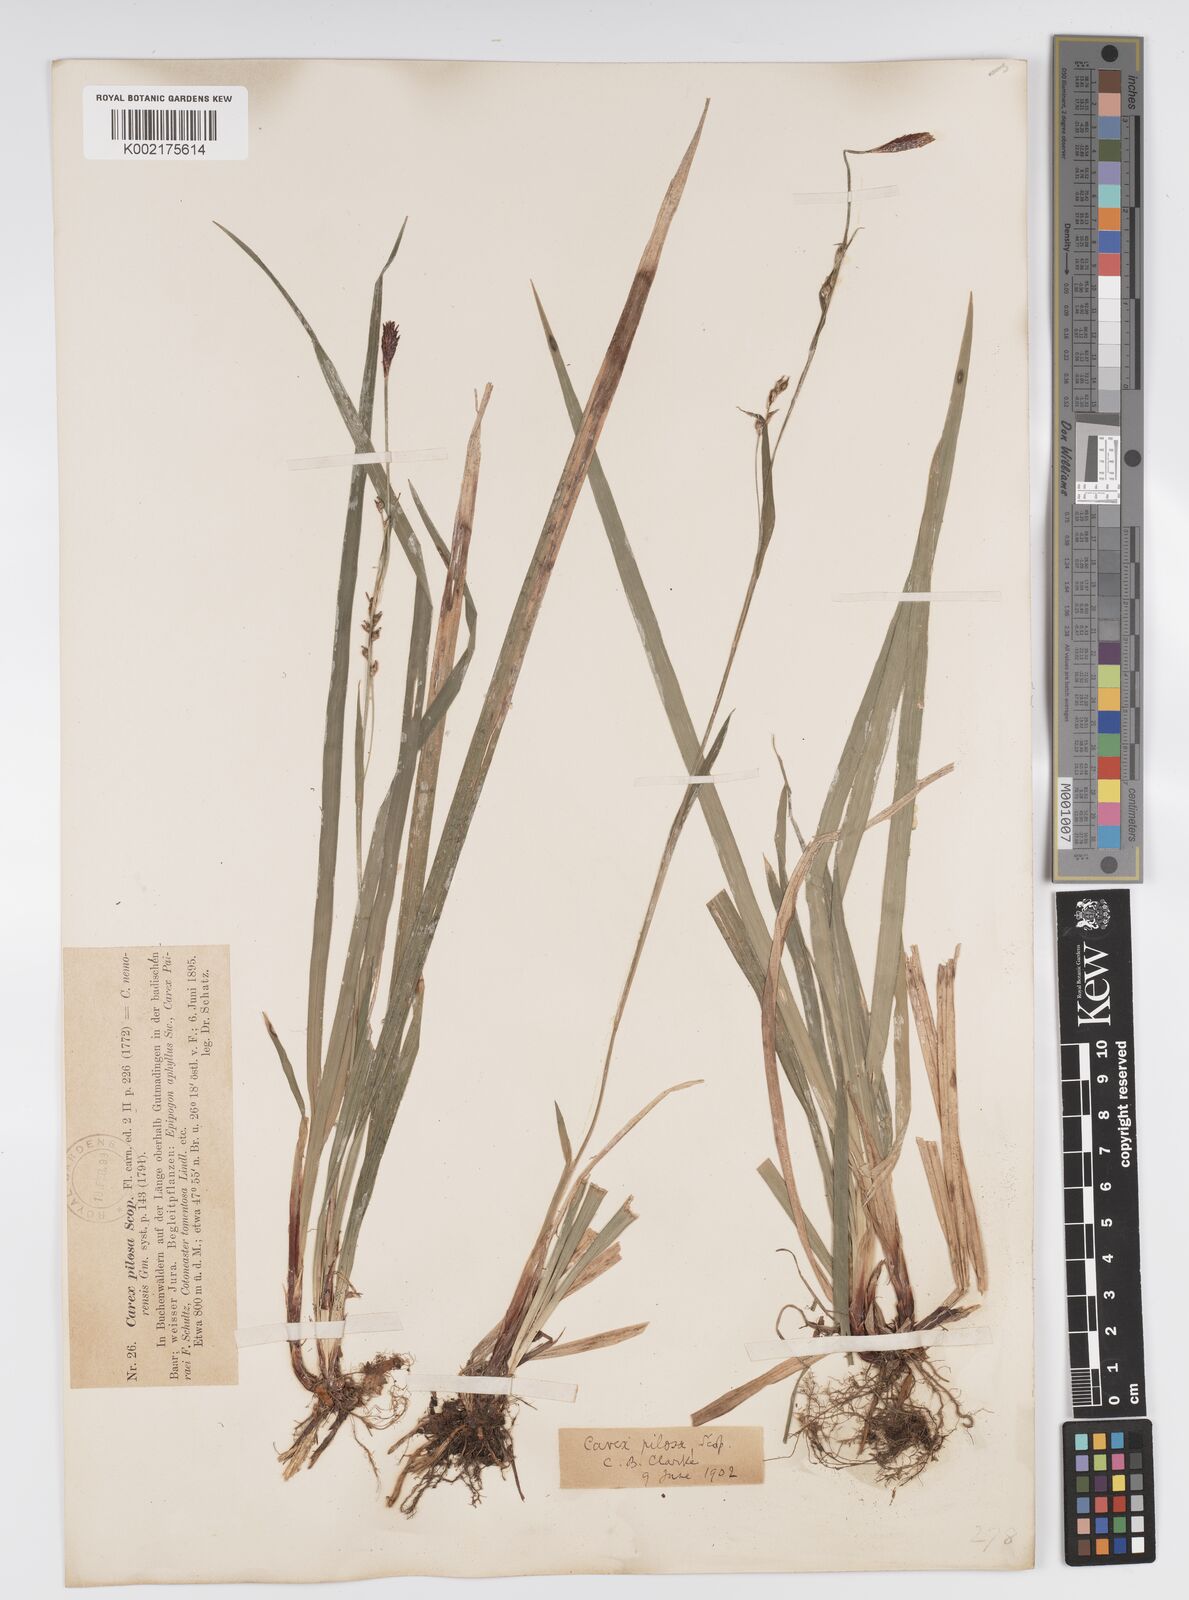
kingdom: Plantae
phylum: Tracheophyta
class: Liliopsida
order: Poales
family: Cyperaceae
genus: Carex
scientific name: Carex pilosa
